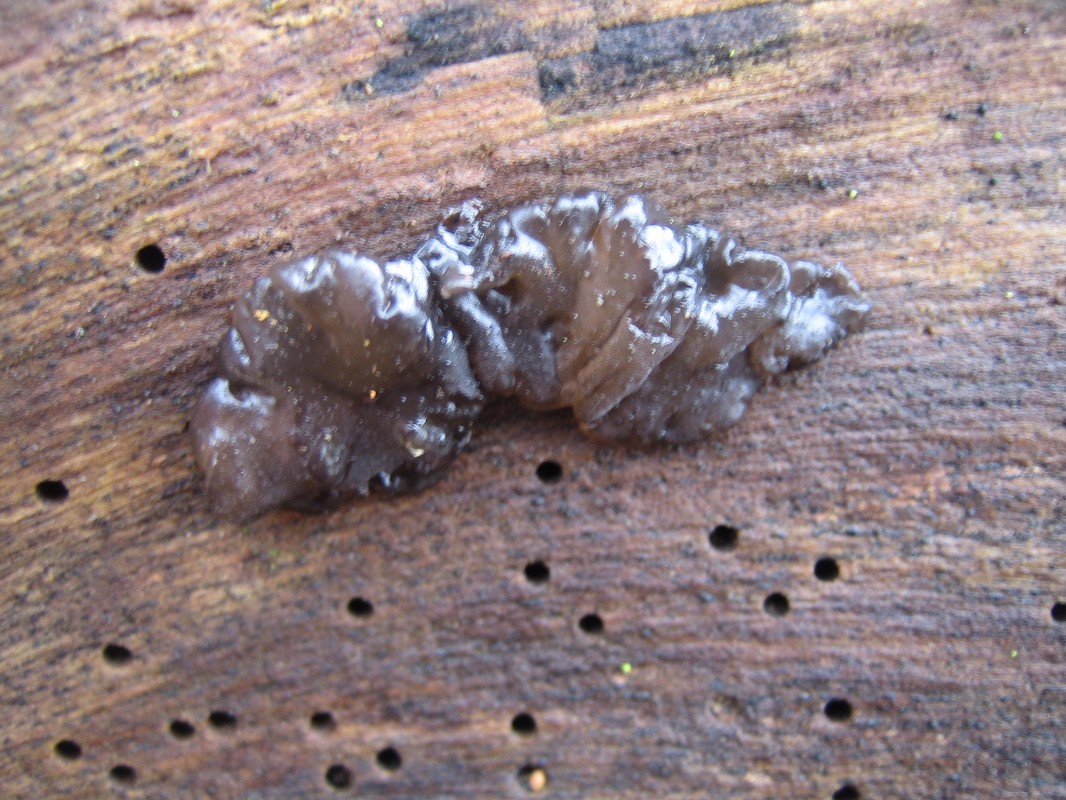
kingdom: Fungi
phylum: Basidiomycota
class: Agaricomycetes
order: Auriculariales
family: Auriculariaceae
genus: Exidia
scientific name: Exidia nigricans
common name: almindelig bævretop
